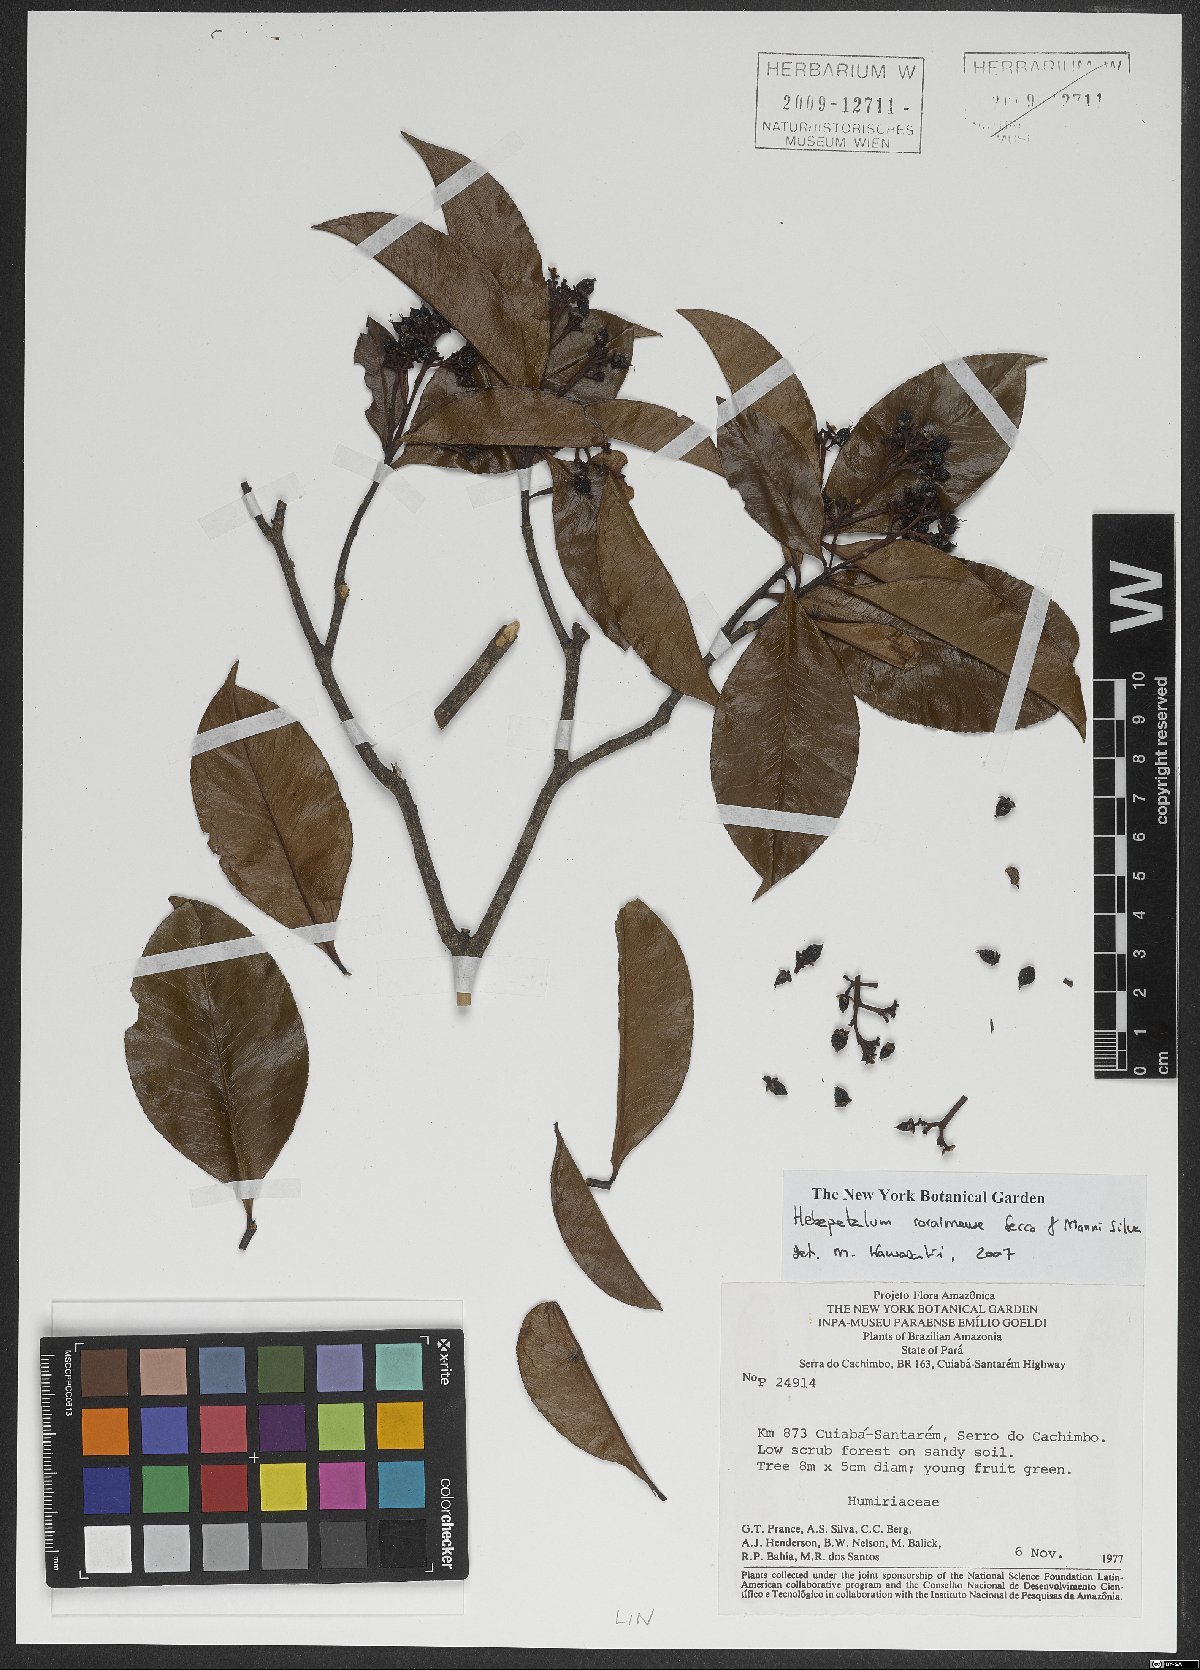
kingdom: Plantae
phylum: Tracheophyta
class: Magnoliopsida
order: Malpighiales
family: Linaceae
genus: Hebepetalum
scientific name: Hebepetalum roraimense
